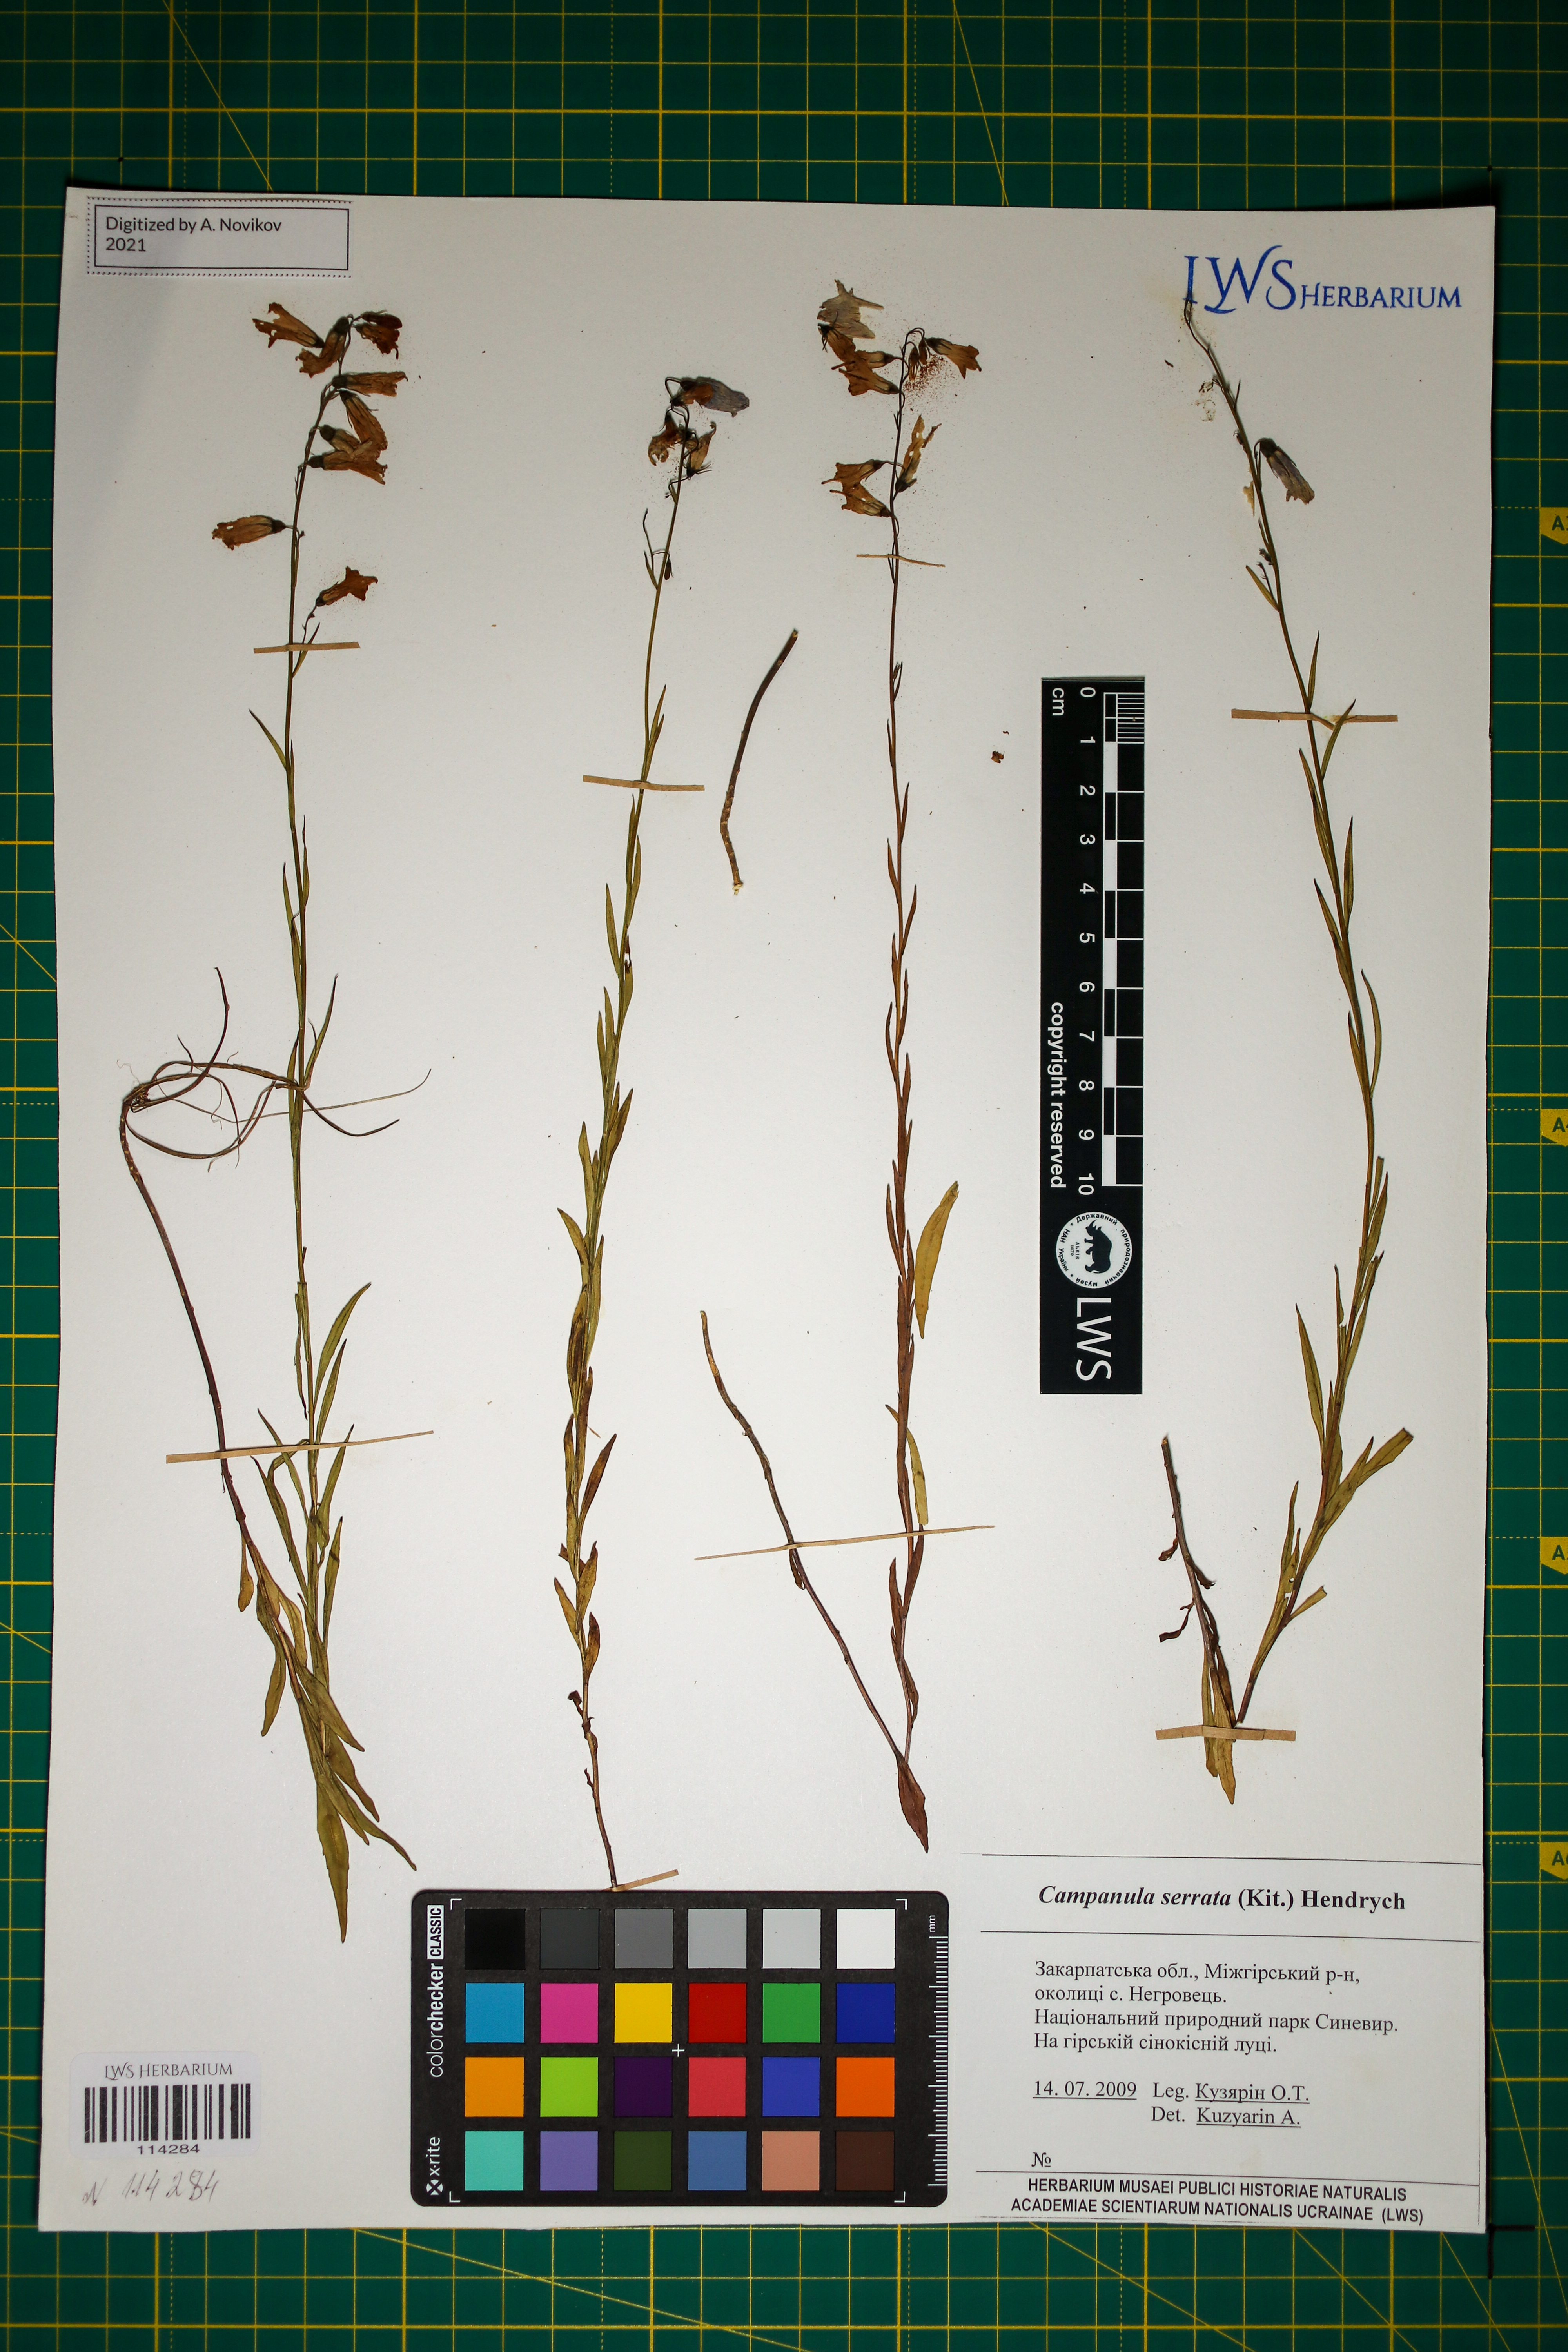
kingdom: Plantae
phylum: Tracheophyta
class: Magnoliopsida
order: Asterales
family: Campanulaceae
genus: Campanula
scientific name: Campanula serrata
